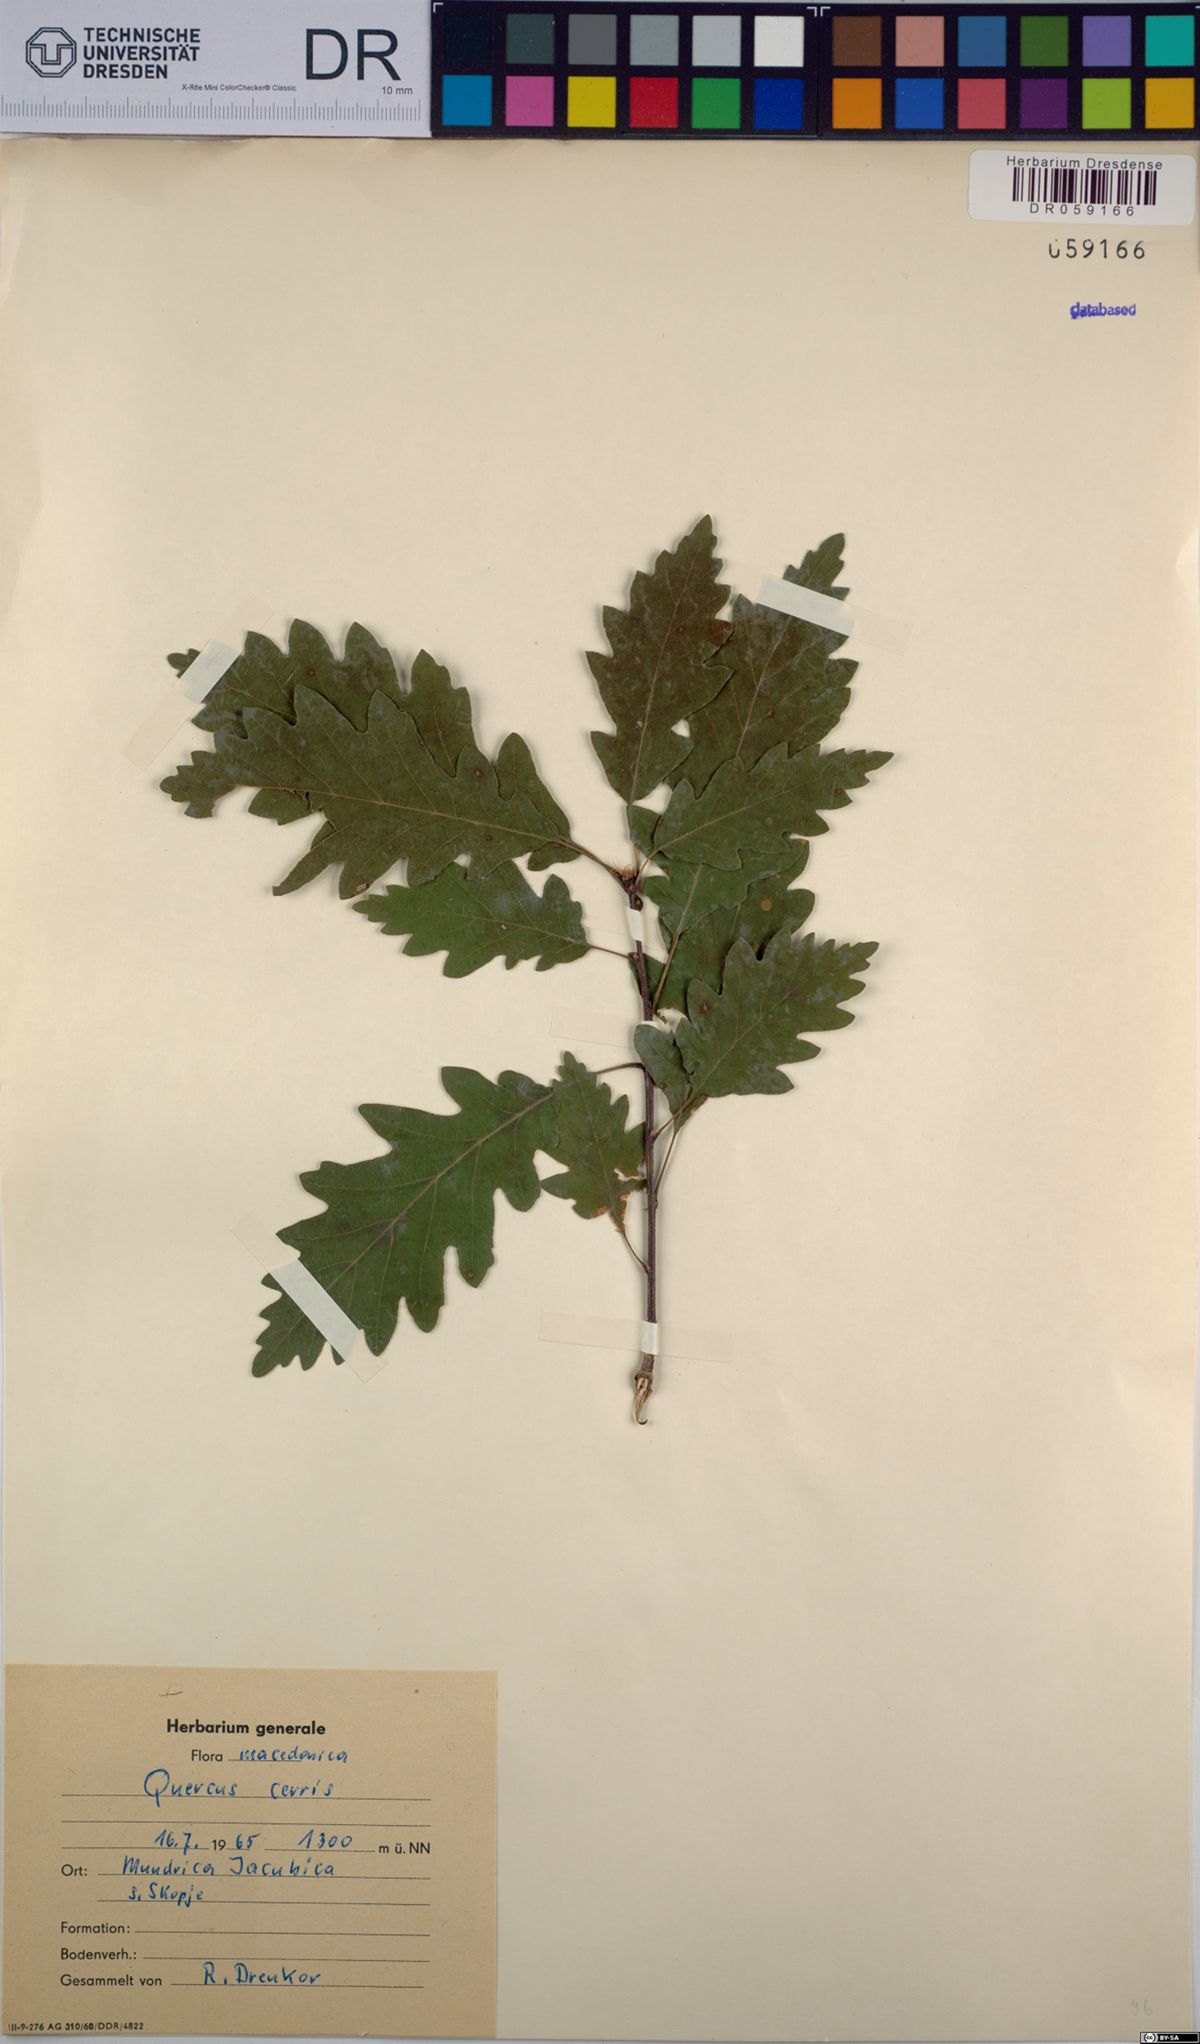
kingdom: Plantae
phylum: Tracheophyta
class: Magnoliopsida
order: Fagales
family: Fagaceae
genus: Quercus
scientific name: Quercus cerris
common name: Turkey oak
